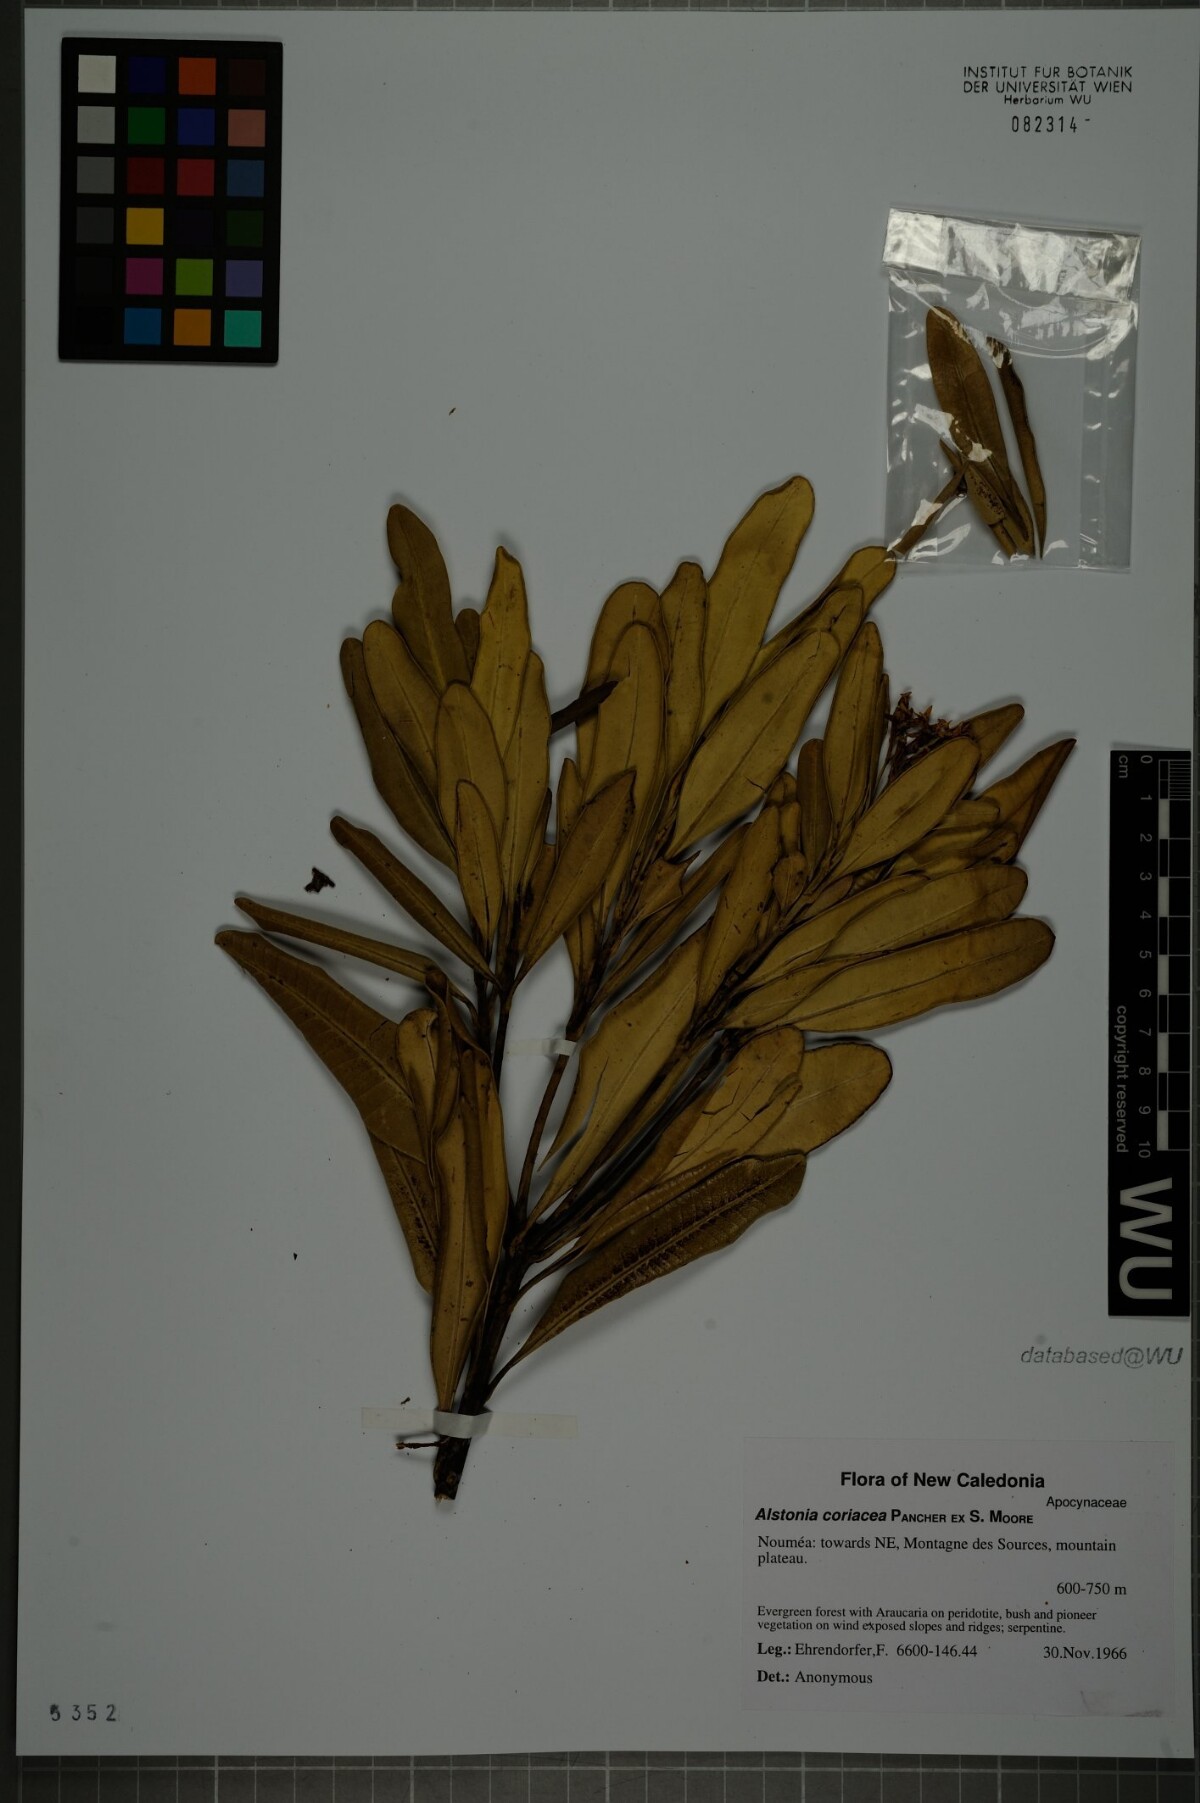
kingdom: Plantae
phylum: Tracheophyta
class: Magnoliopsida
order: Gentianales
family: Apocynaceae
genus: Alstonia
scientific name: Alstonia coriacea
